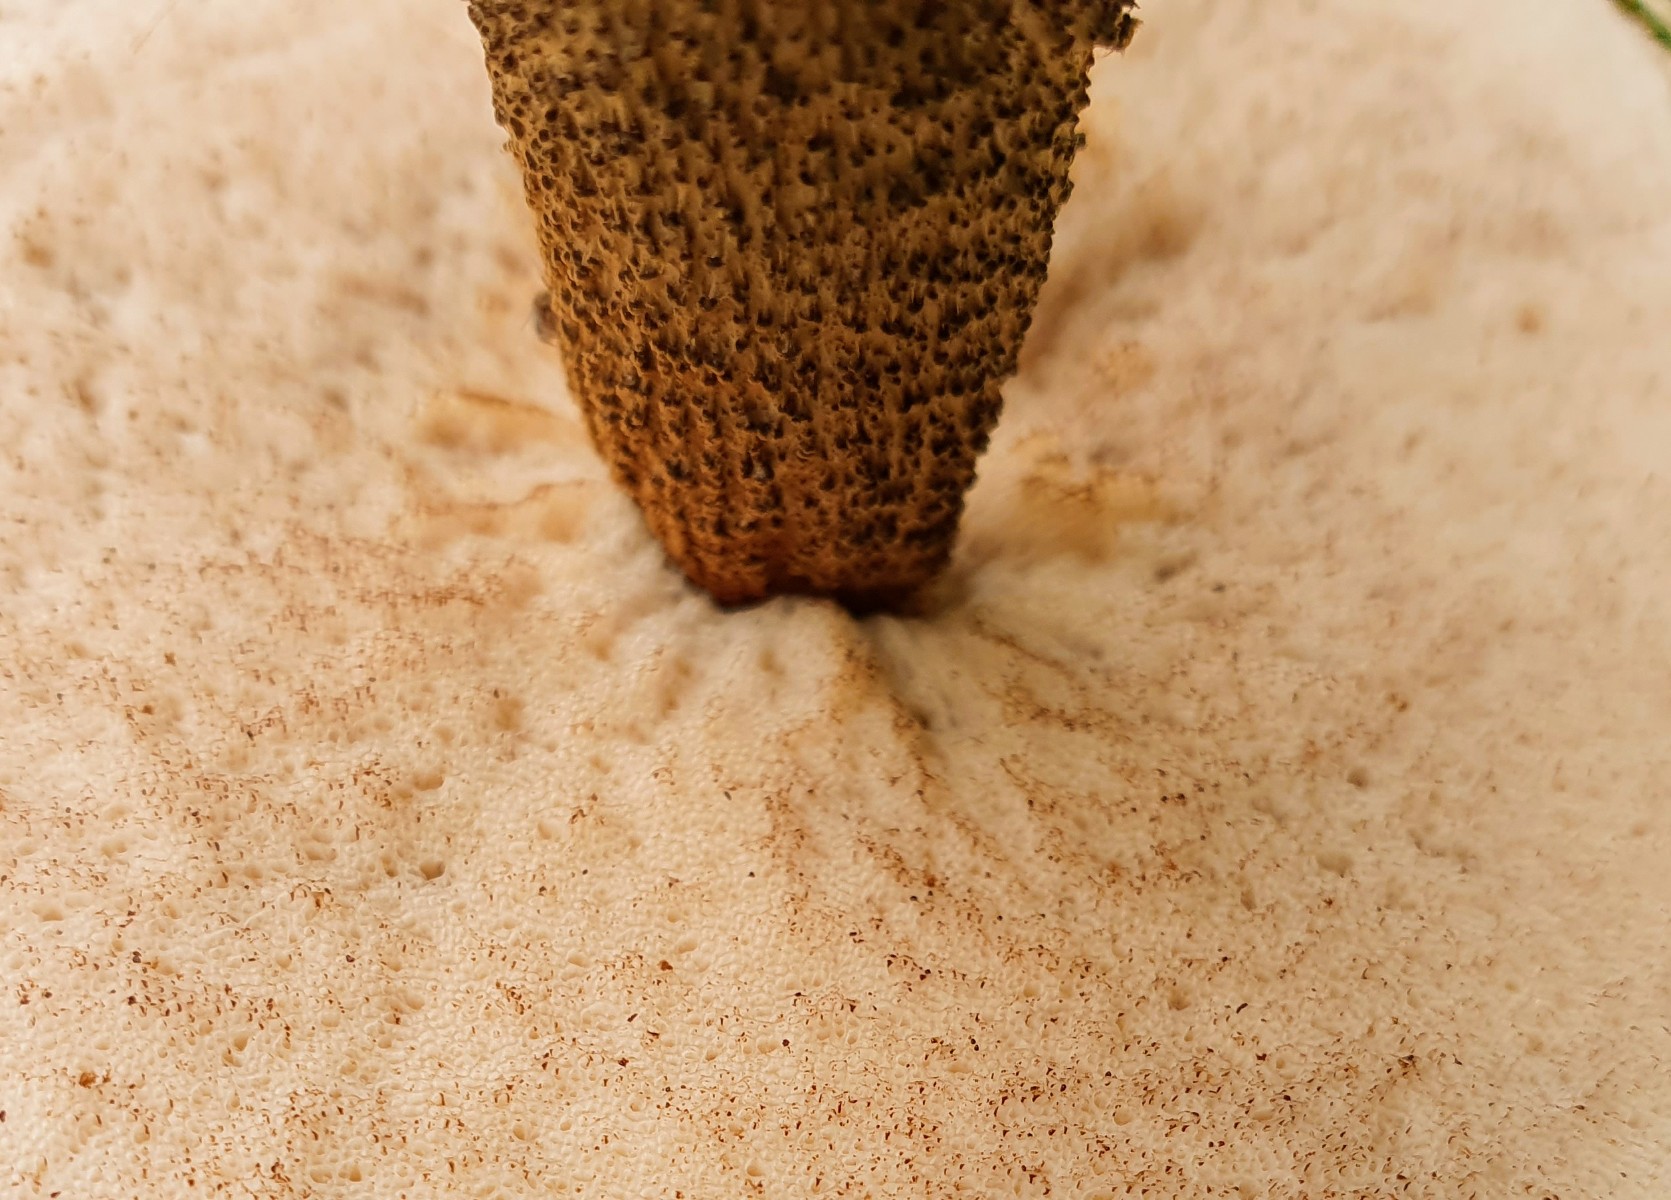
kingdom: Fungi
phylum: Basidiomycota
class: Agaricomycetes
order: Boletales
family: Boletaceae
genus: Leccinum
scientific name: Leccinum scabrum
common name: brun skælrørhat
